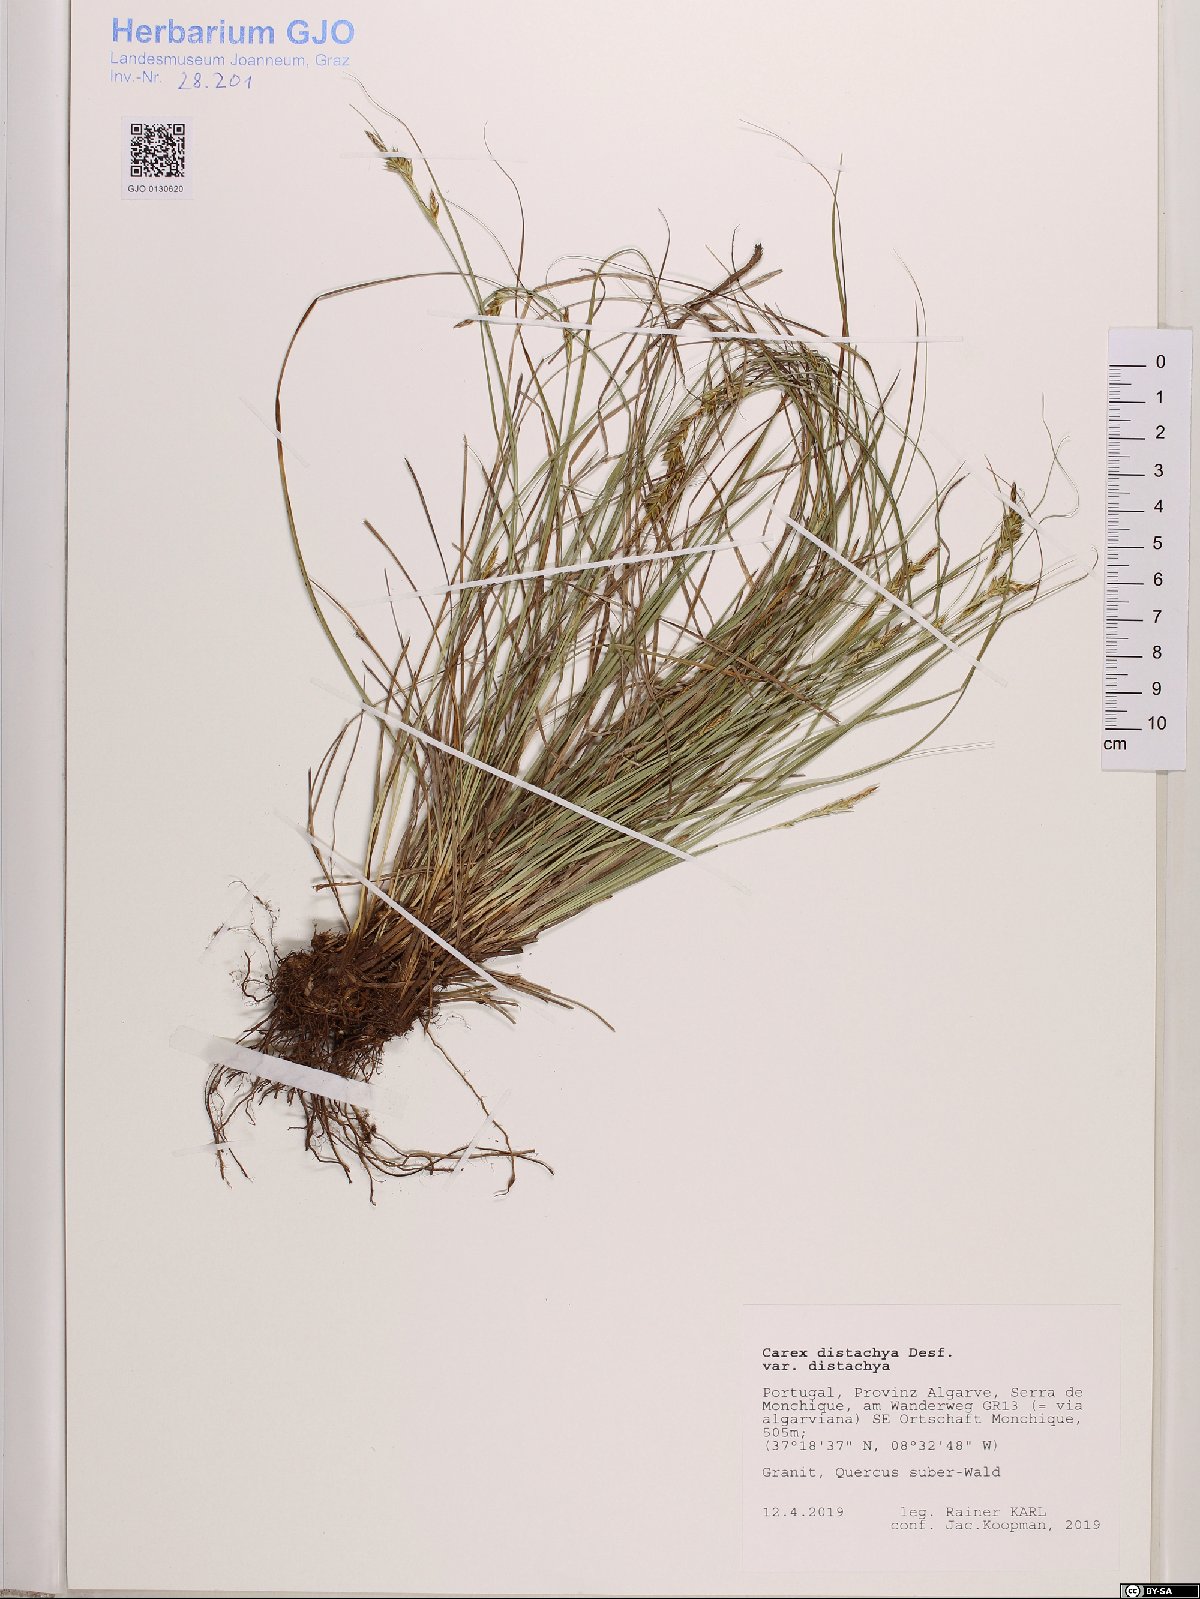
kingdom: Plantae
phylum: Tracheophyta
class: Liliopsida
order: Poales
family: Cyperaceae
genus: Carex
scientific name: Carex distachya
